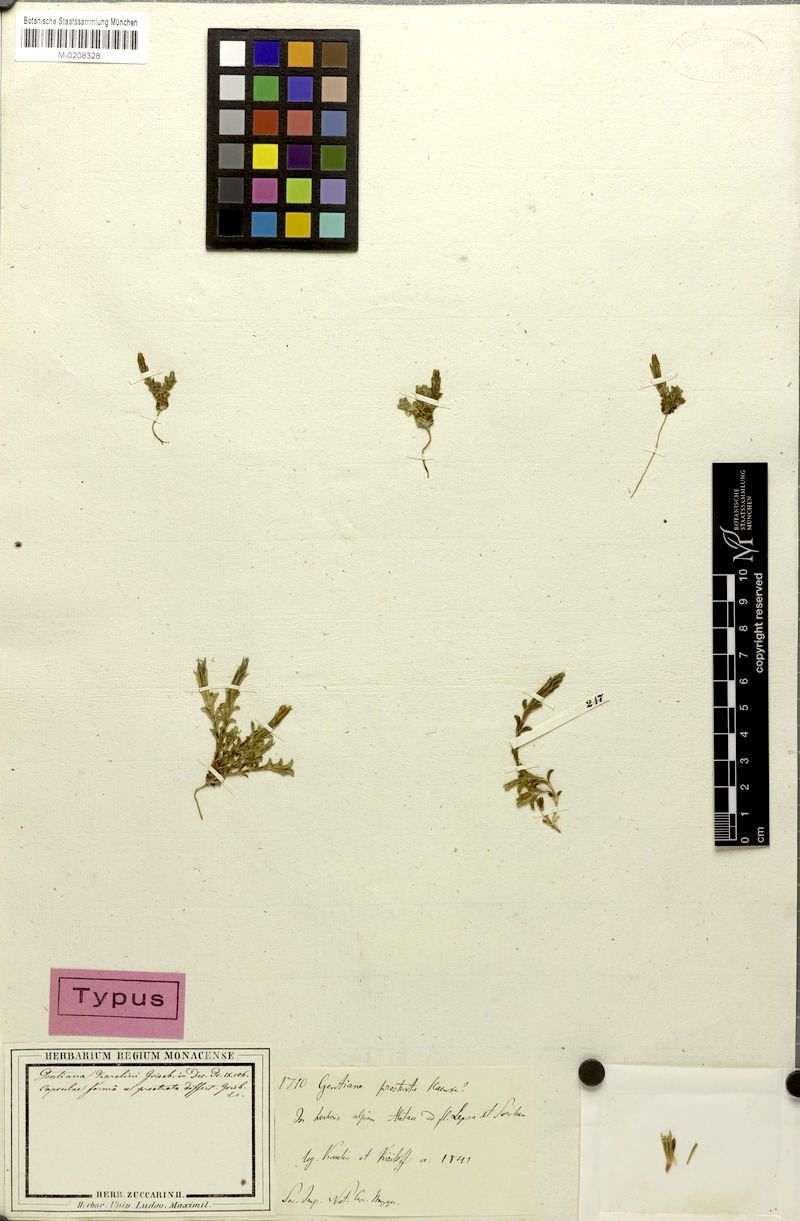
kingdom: Plantae
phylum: Tracheophyta
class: Magnoliopsida
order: Gentianales
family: Gentianaceae
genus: Gentiana
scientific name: Gentiana prostrata
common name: Moss gentian
